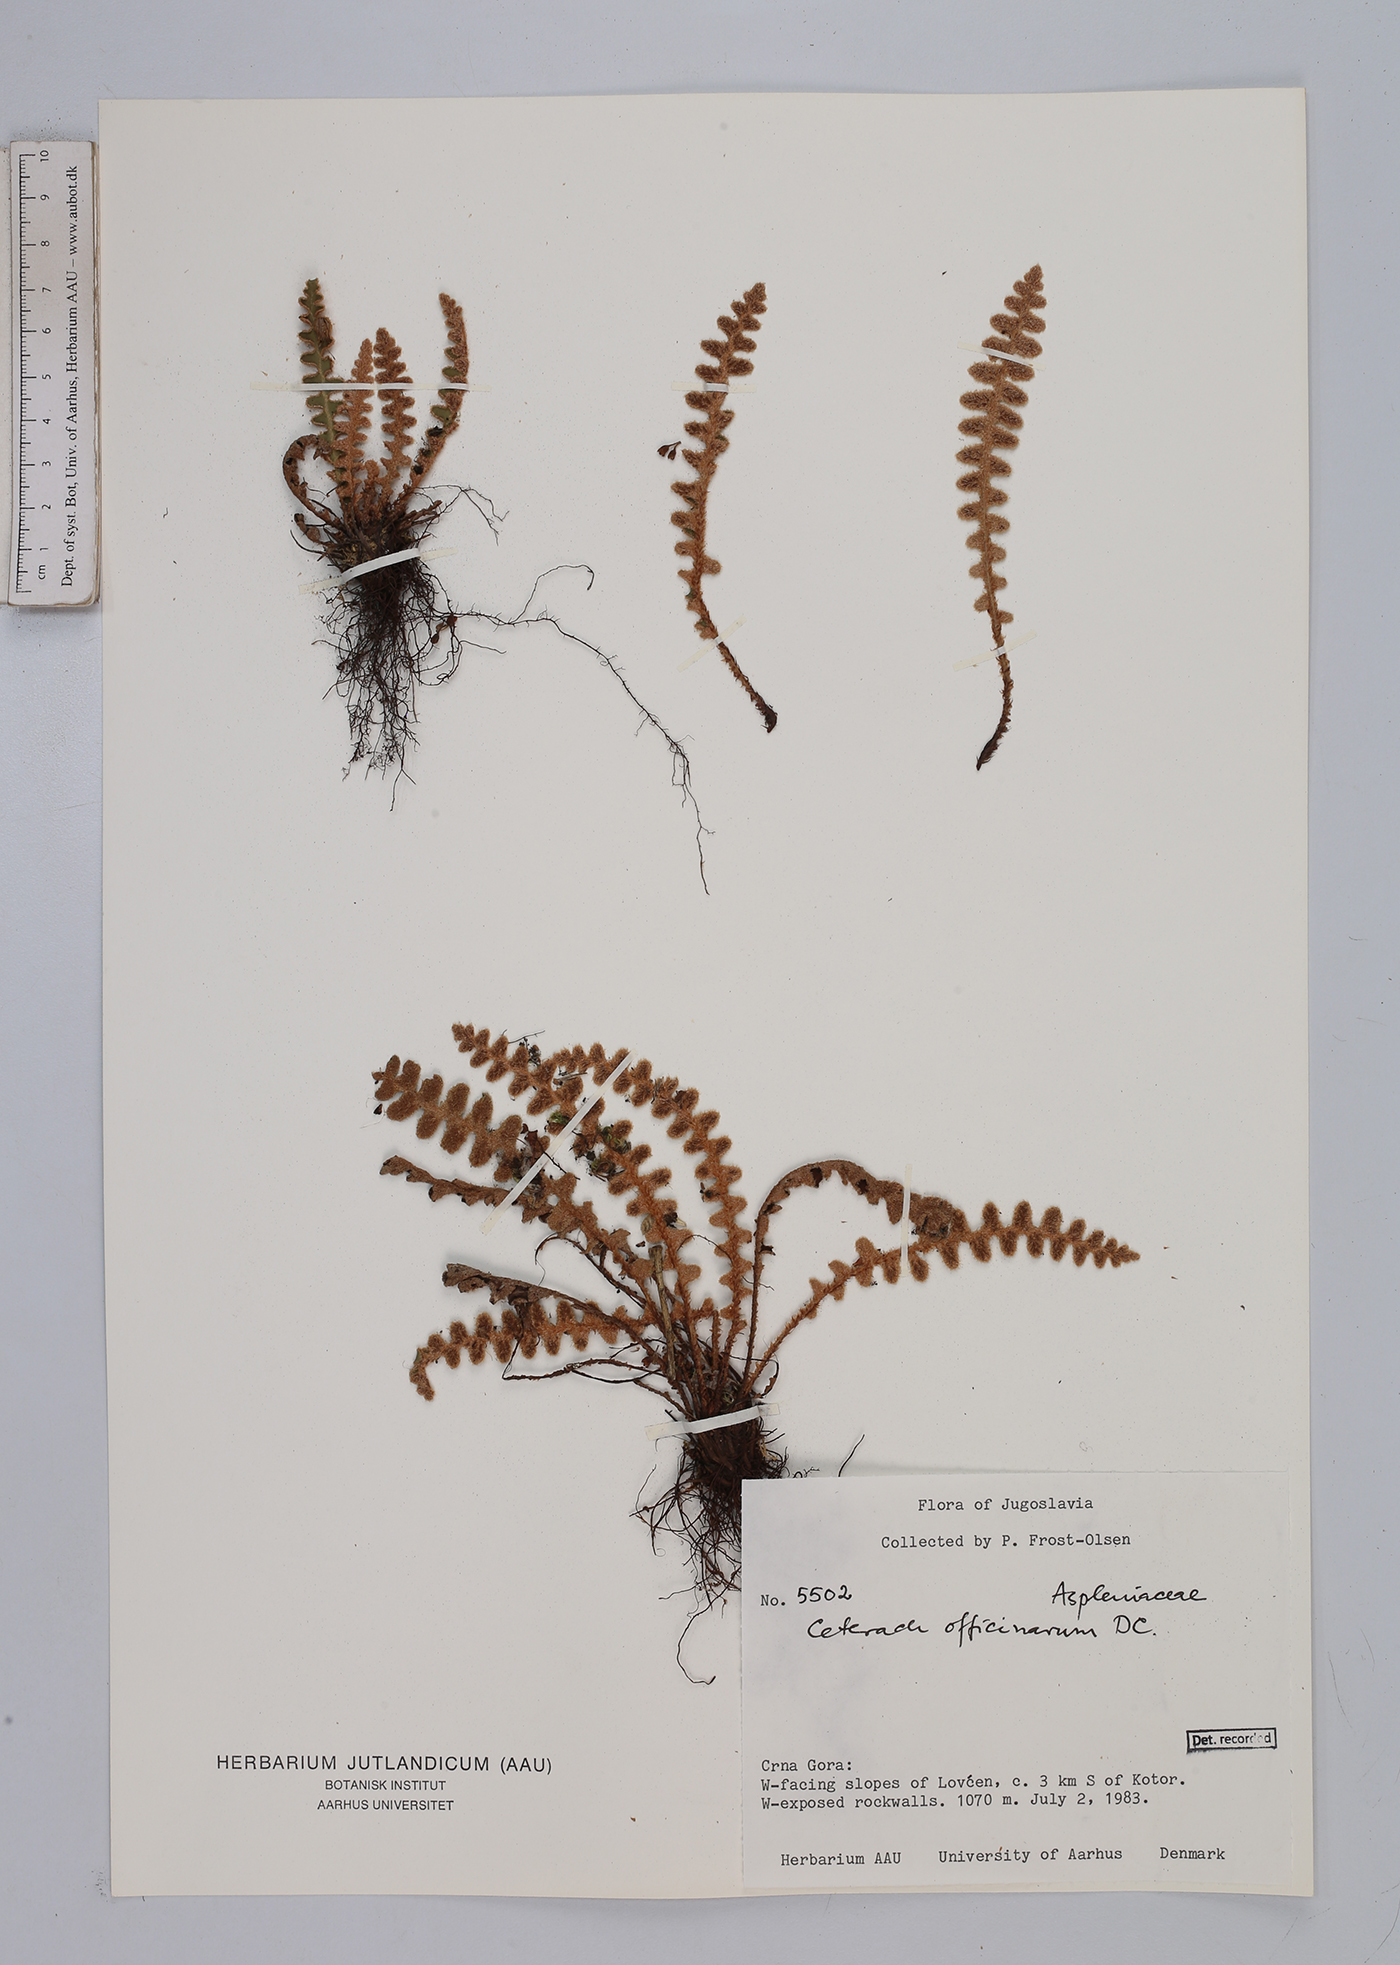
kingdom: Plantae
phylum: Tracheophyta
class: Polypodiopsida
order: Polypodiales
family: Aspleniaceae
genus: Asplenium
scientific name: Asplenium ceterach
